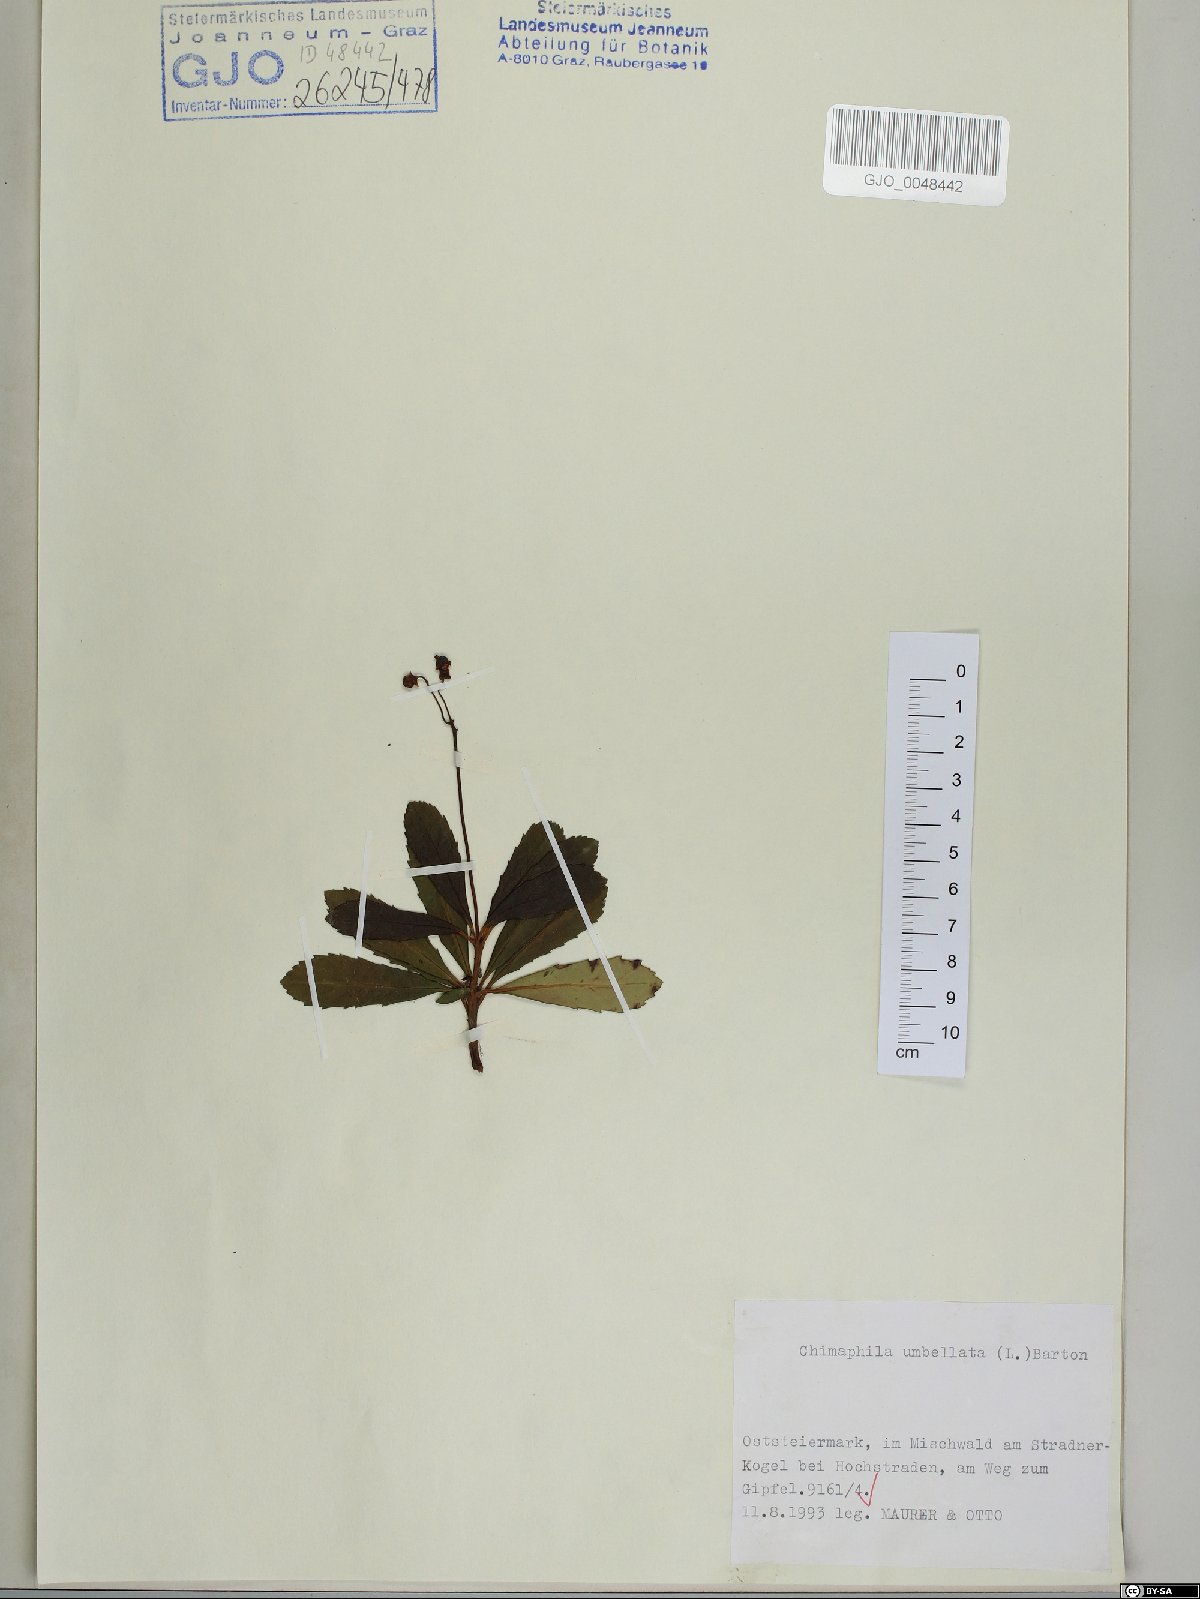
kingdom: Plantae
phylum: Tracheophyta
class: Magnoliopsida
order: Ericales
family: Ericaceae
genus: Chimaphila
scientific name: Chimaphila umbellata
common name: Pipsissewa
